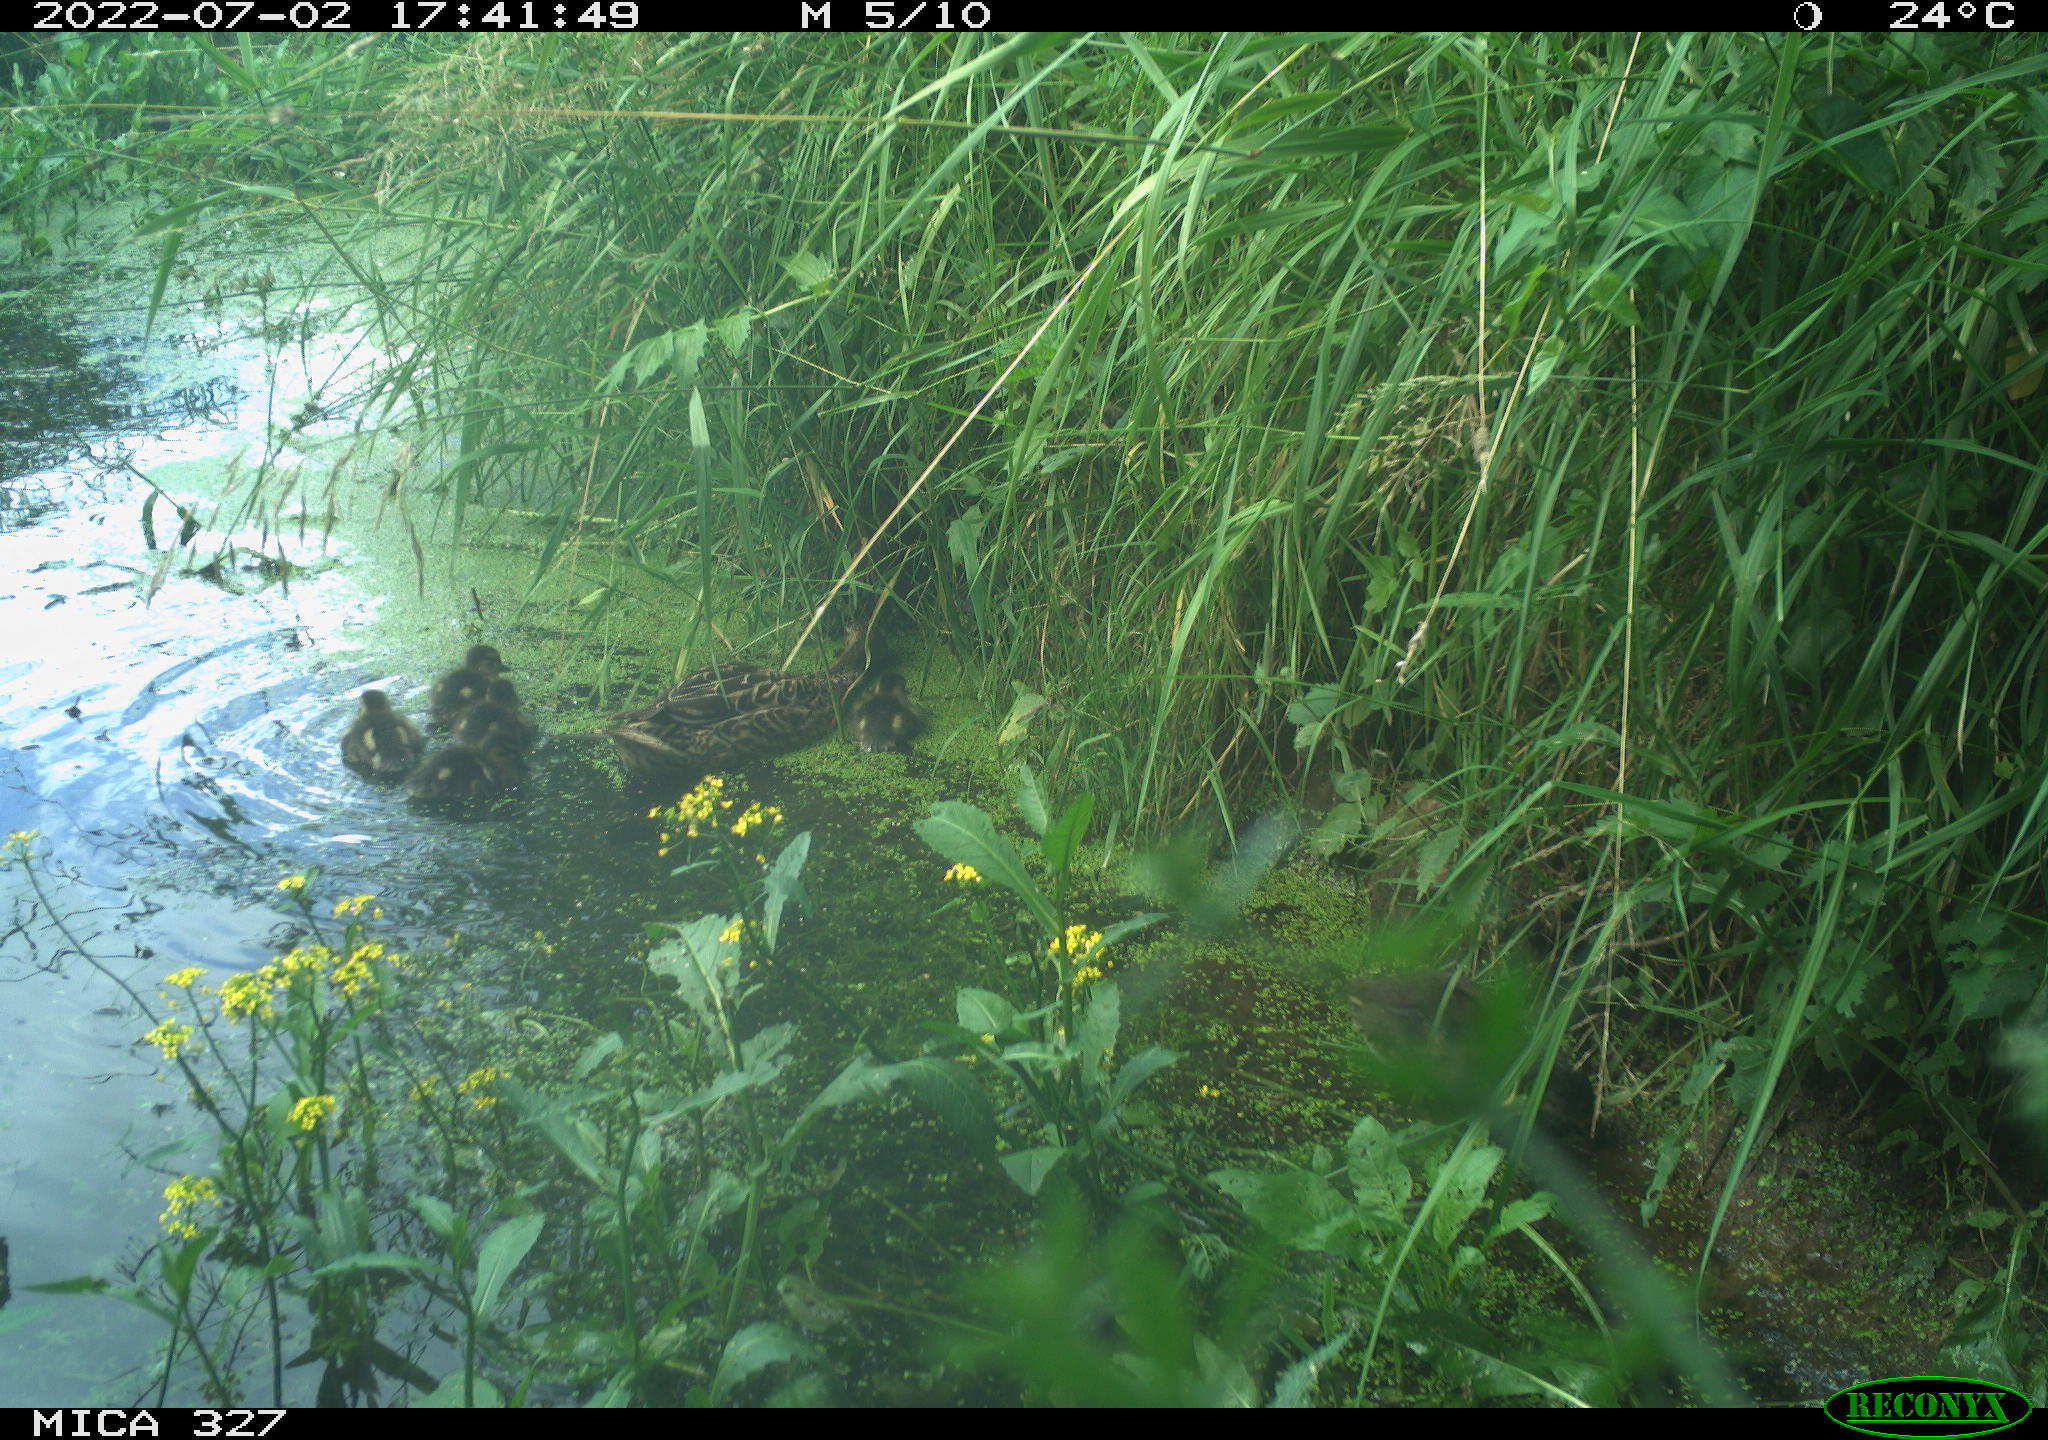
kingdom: Animalia
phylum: Chordata
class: Aves
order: Anseriformes
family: Anatidae
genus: Anas
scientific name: Anas platyrhynchos
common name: Mallard
